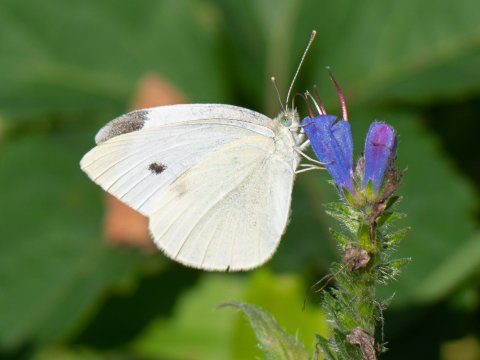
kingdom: Animalia
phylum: Arthropoda
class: Insecta
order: Lepidoptera
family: Pieridae
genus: Pieris
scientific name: Pieris rapae
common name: Cabbage White
